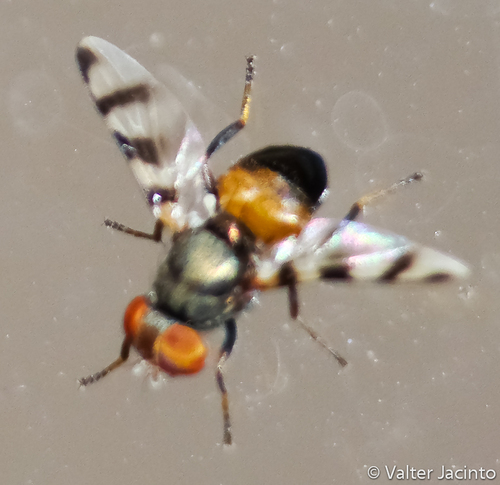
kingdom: Animalia
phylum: Arthropoda
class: Insecta
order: Diptera
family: Ulidiidae
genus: Euxesta
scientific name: Euxesta pacifica
